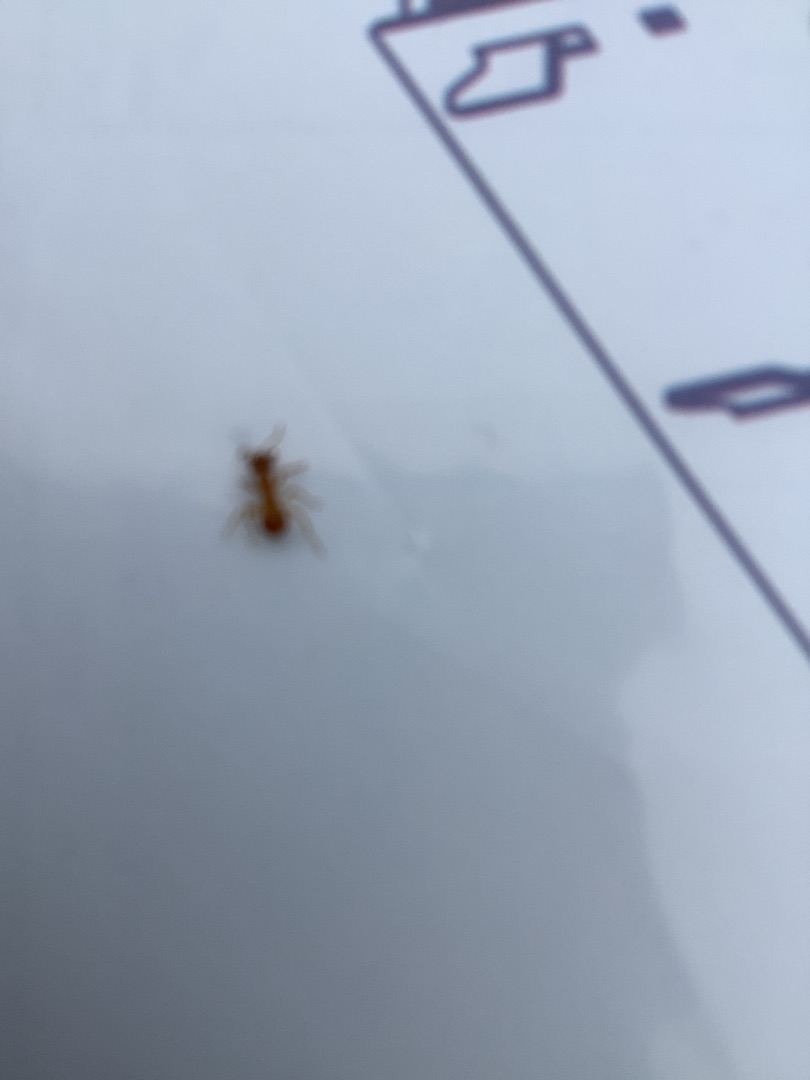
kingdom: Animalia
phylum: Arthropoda
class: Insecta
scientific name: Insecta
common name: Insekter
